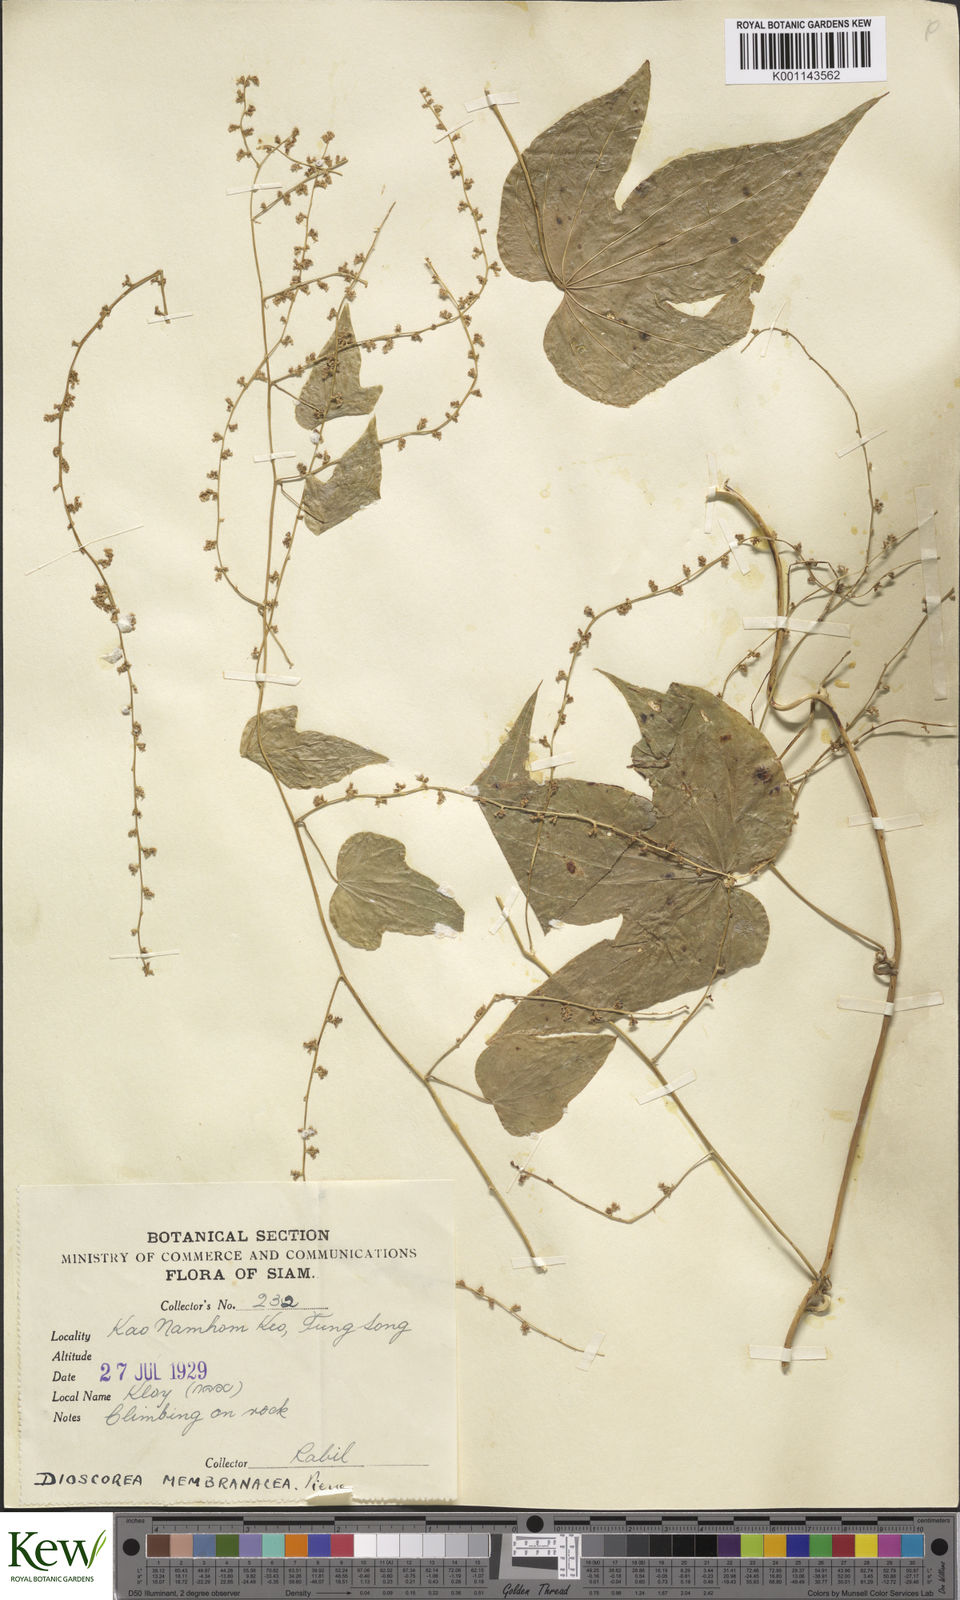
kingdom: Plantae
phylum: Tracheophyta
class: Liliopsida
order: Dioscoreales
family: Dioscoreaceae
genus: Dioscorea
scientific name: Dioscorea membranacea
